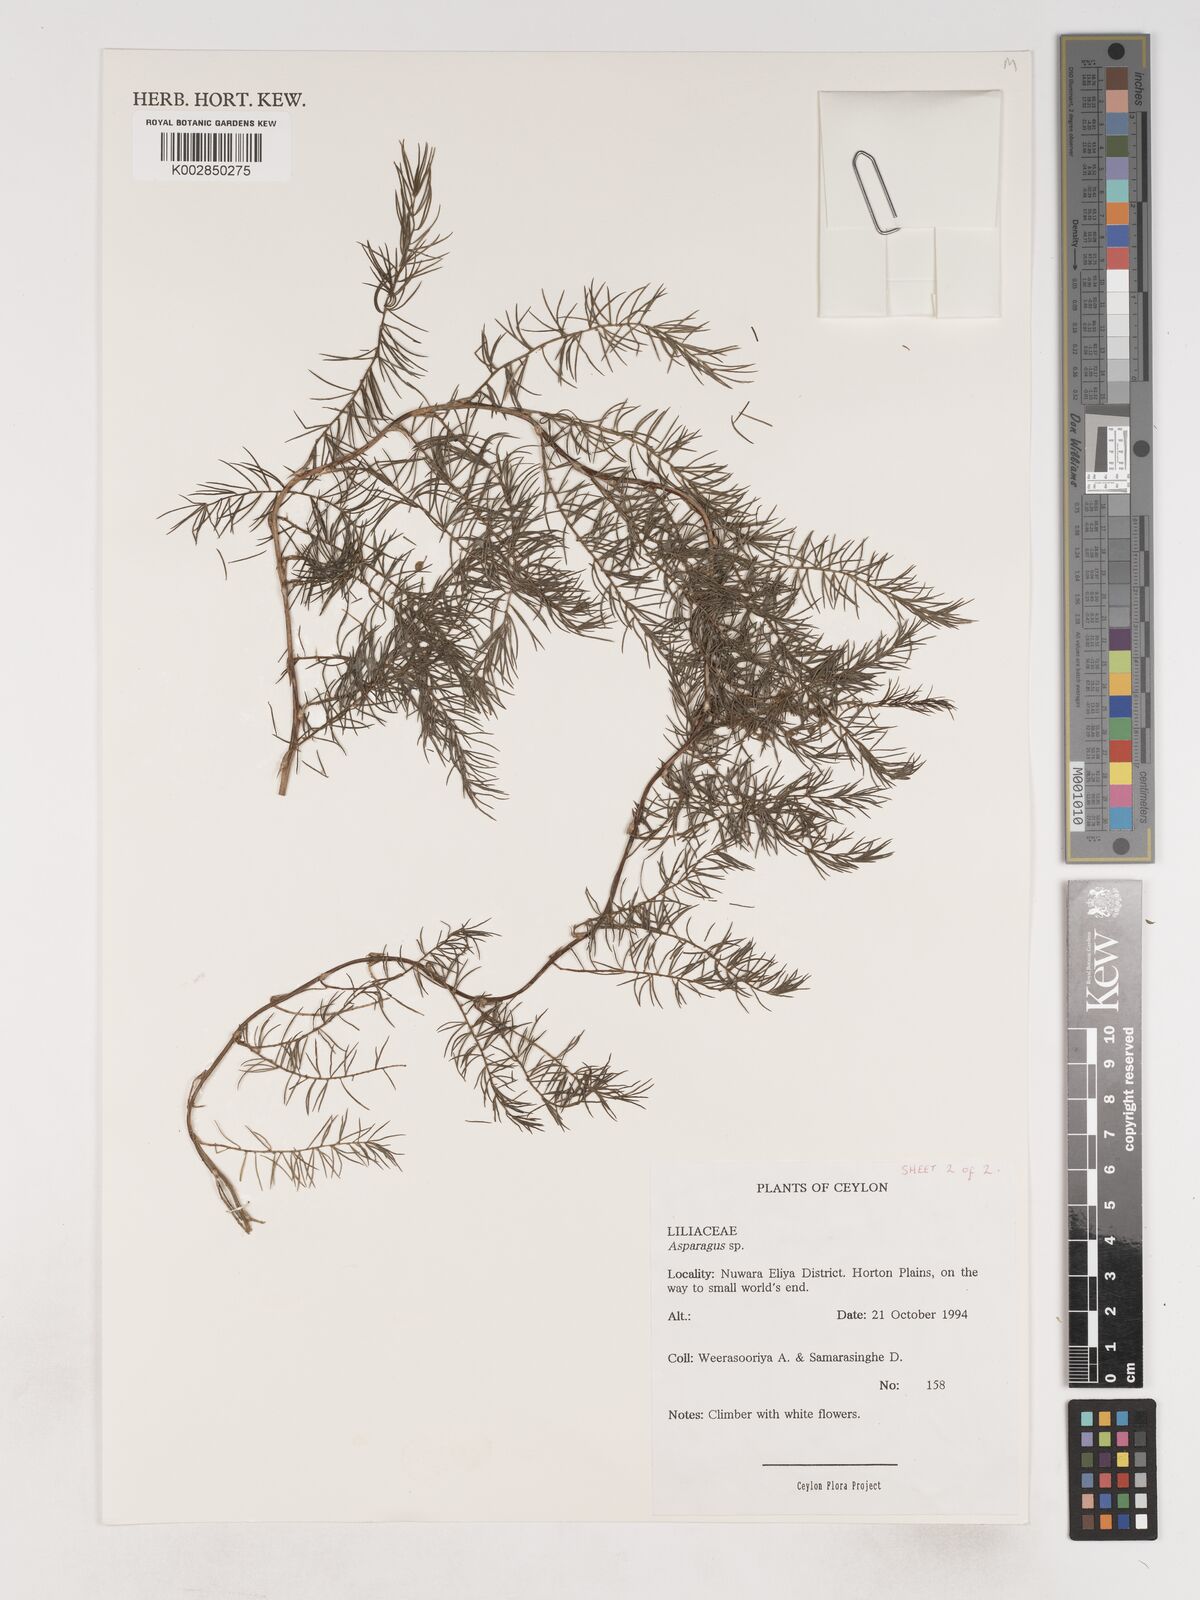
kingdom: Plantae
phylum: Tracheophyta
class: Liliopsida
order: Asparagales
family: Asparagaceae
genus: Asparagus
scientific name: Asparagus
